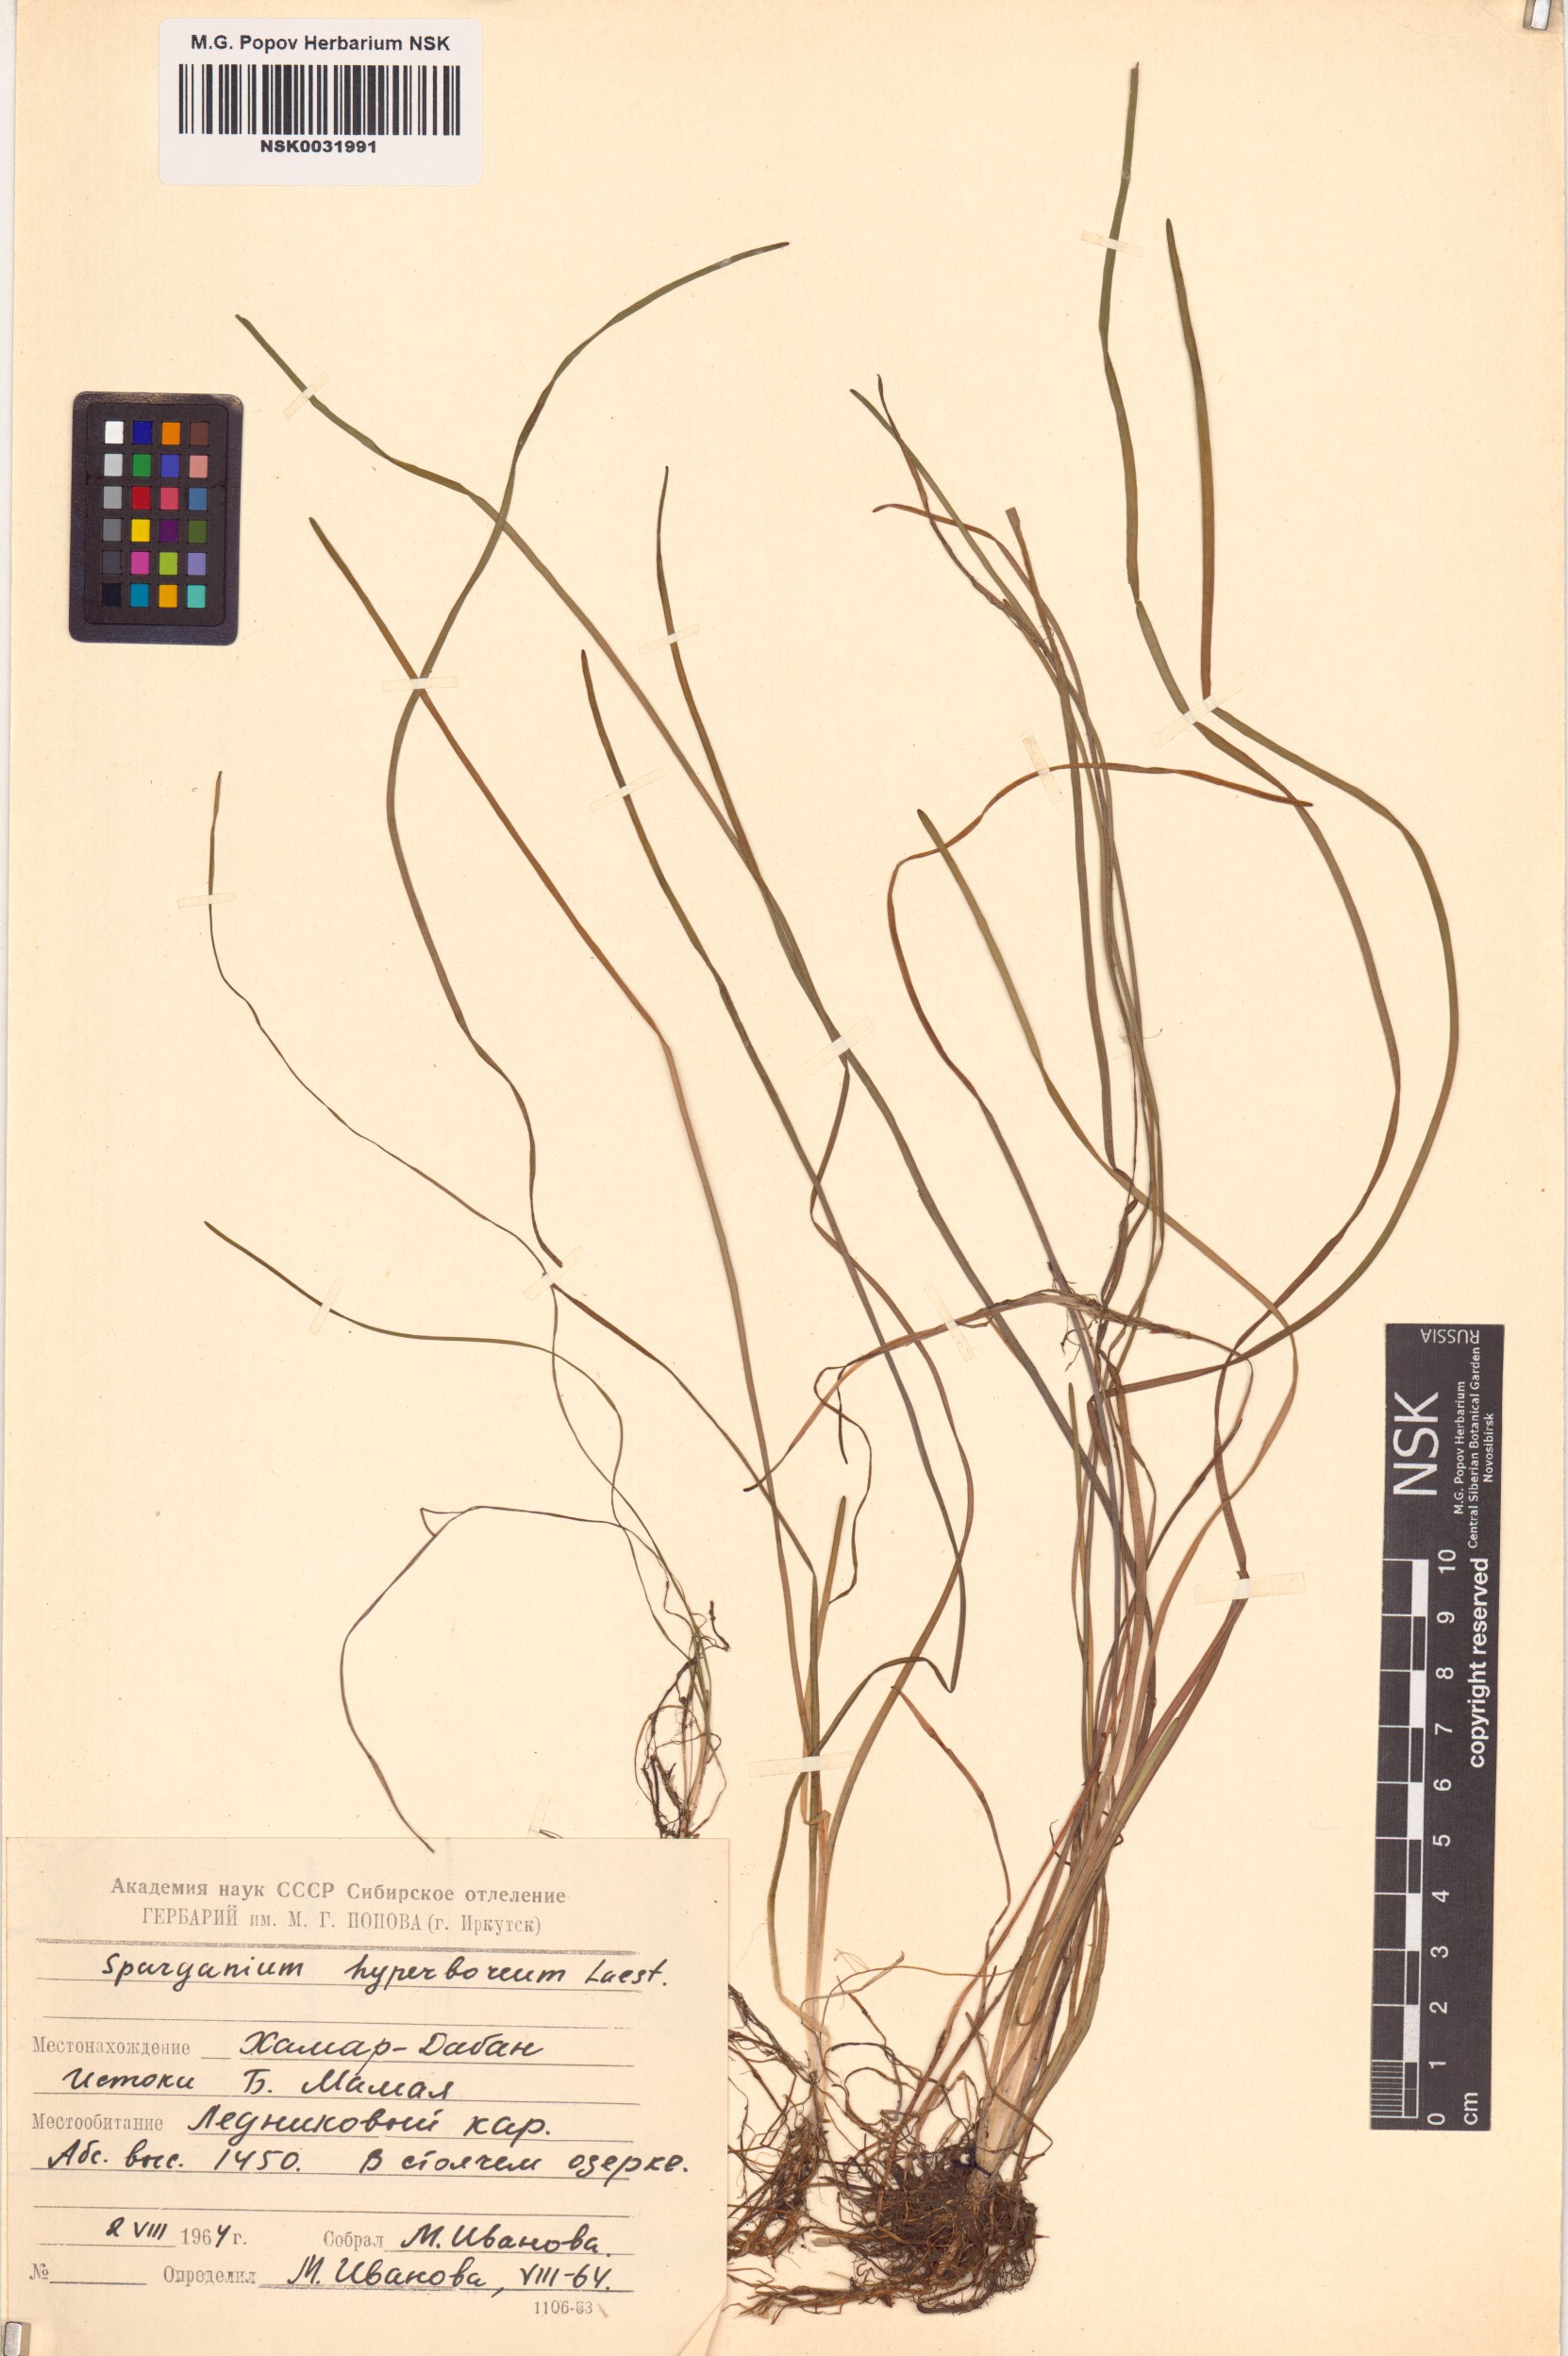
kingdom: Plantae
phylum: Tracheophyta
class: Liliopsida
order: Poales
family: Typhaceae
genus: Sparganium
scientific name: Sparganium hyperboreum
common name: Arctic burreed
